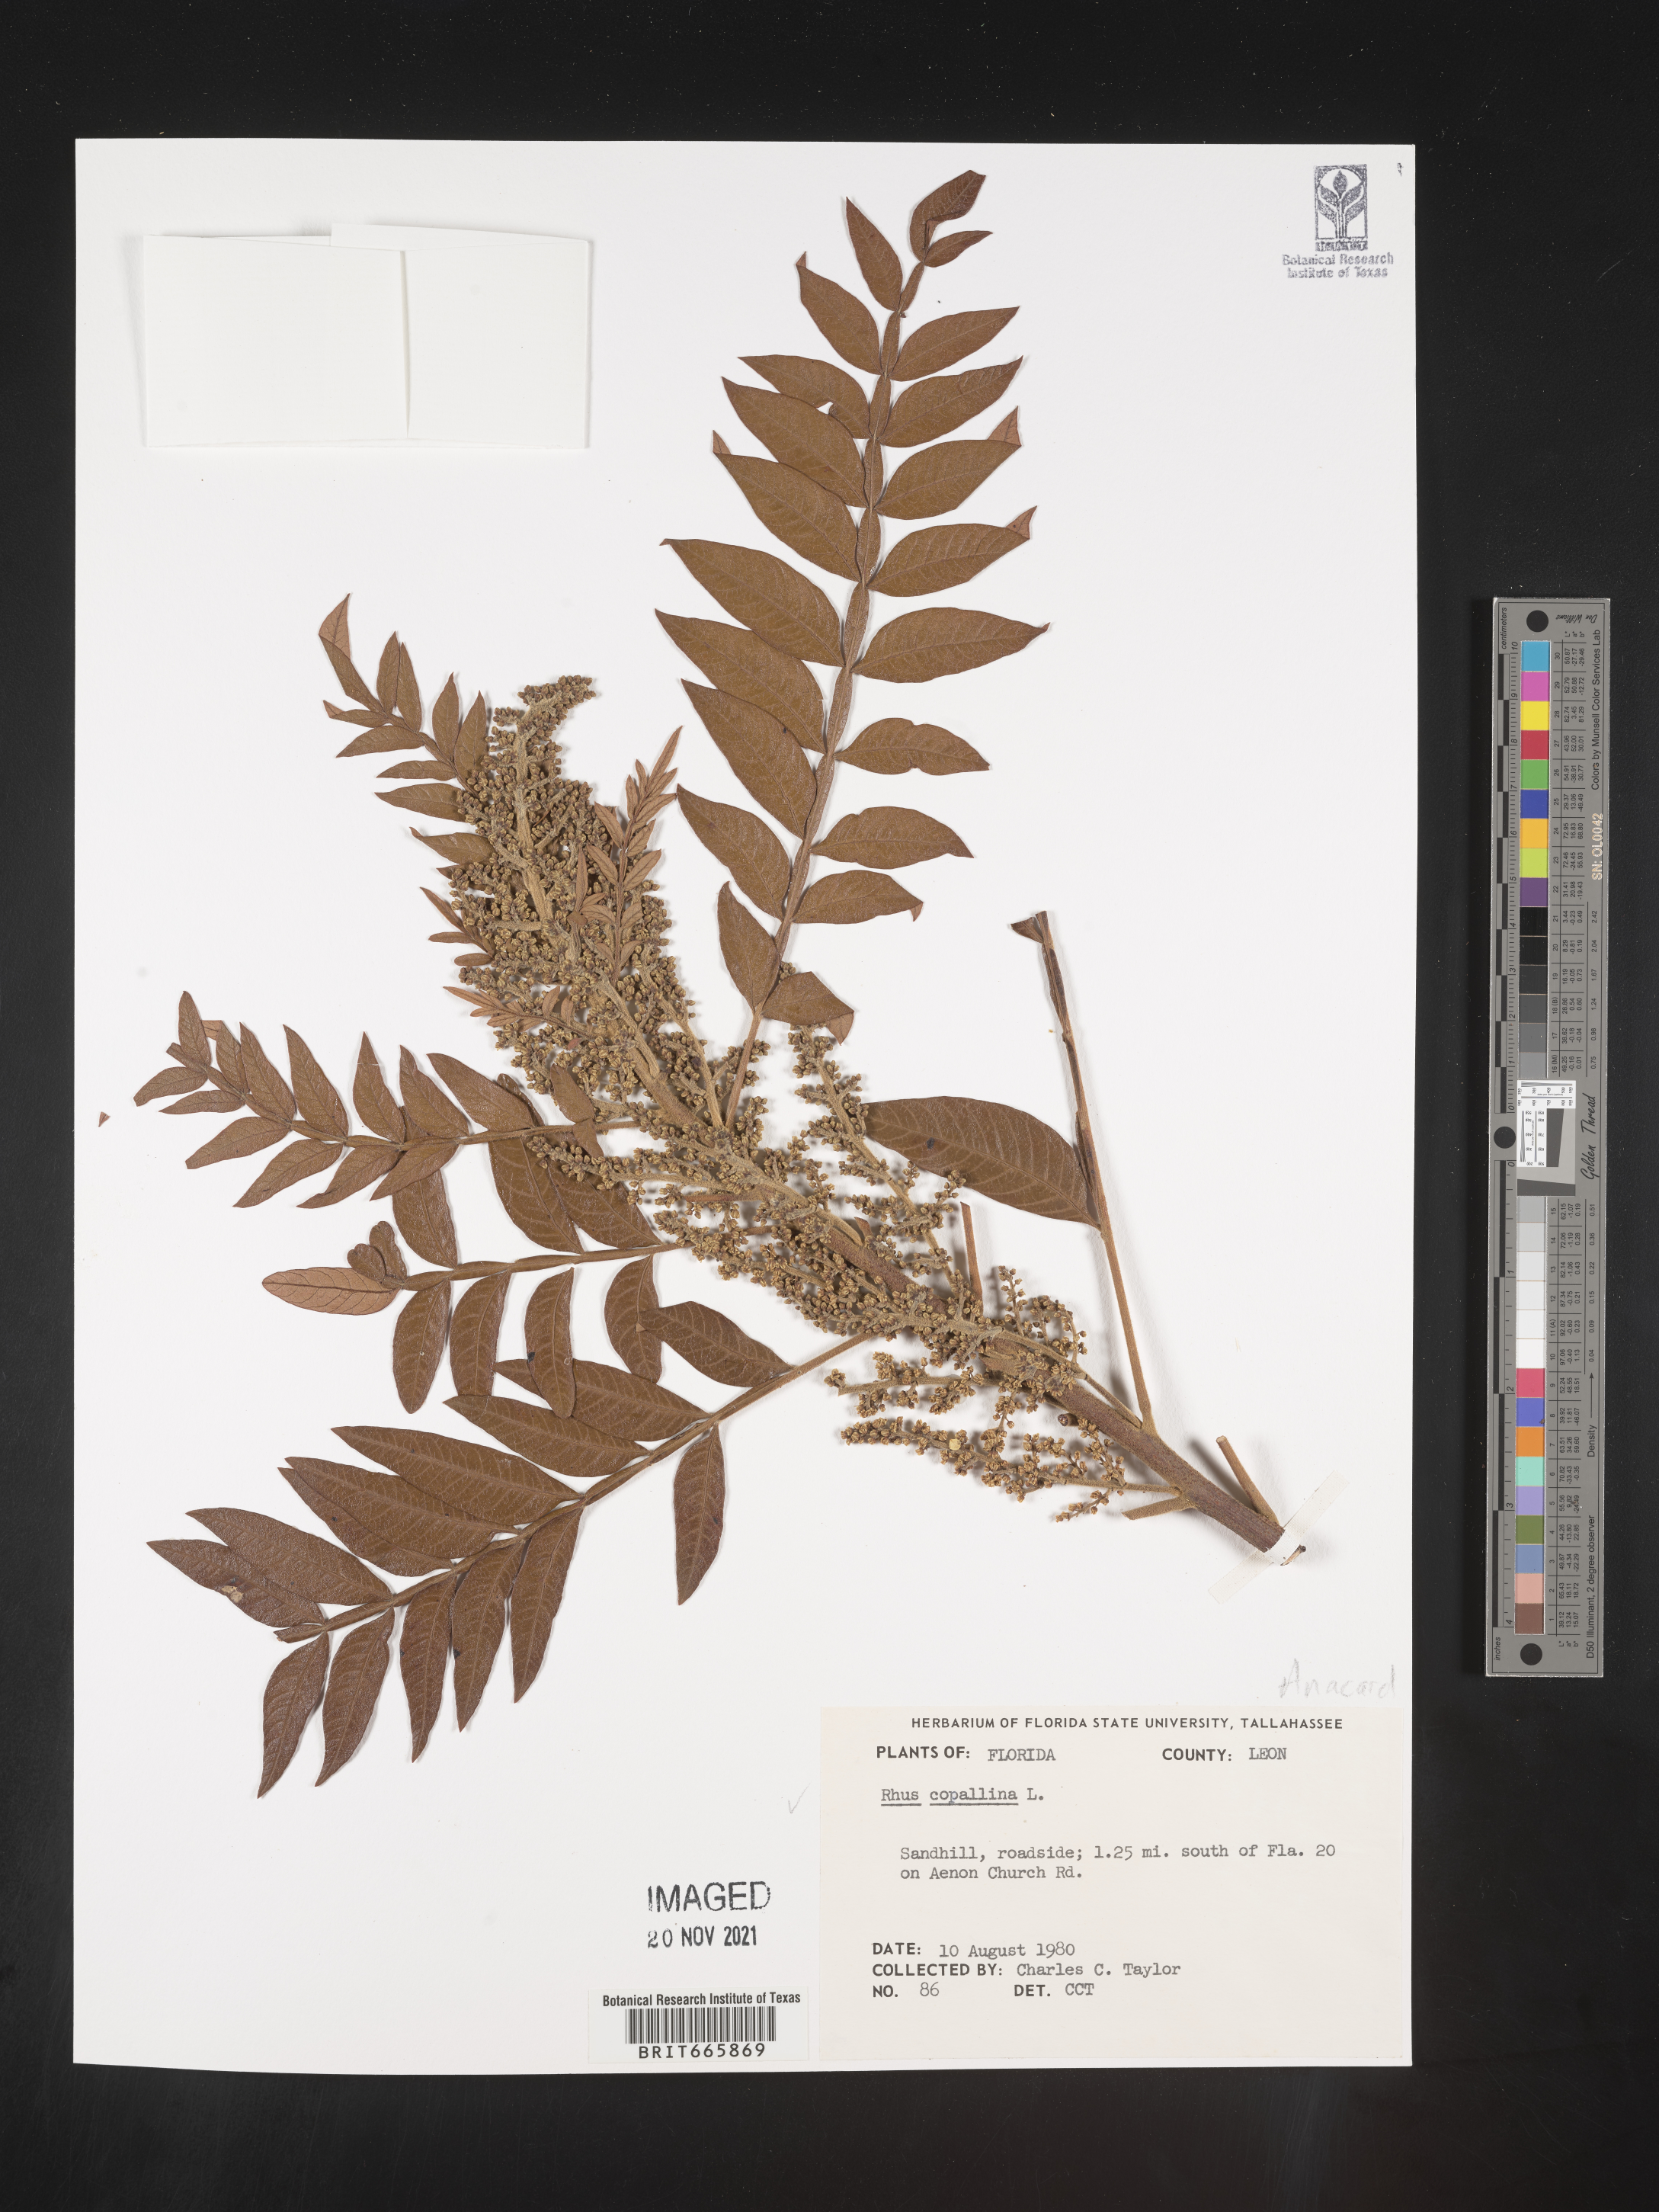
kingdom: Plantae
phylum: Tracheophyta
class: Magnoliopsida
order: Sapindales
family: Anacardiaceae
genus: Rhus
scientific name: Rhus copallina
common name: Shining sumac
